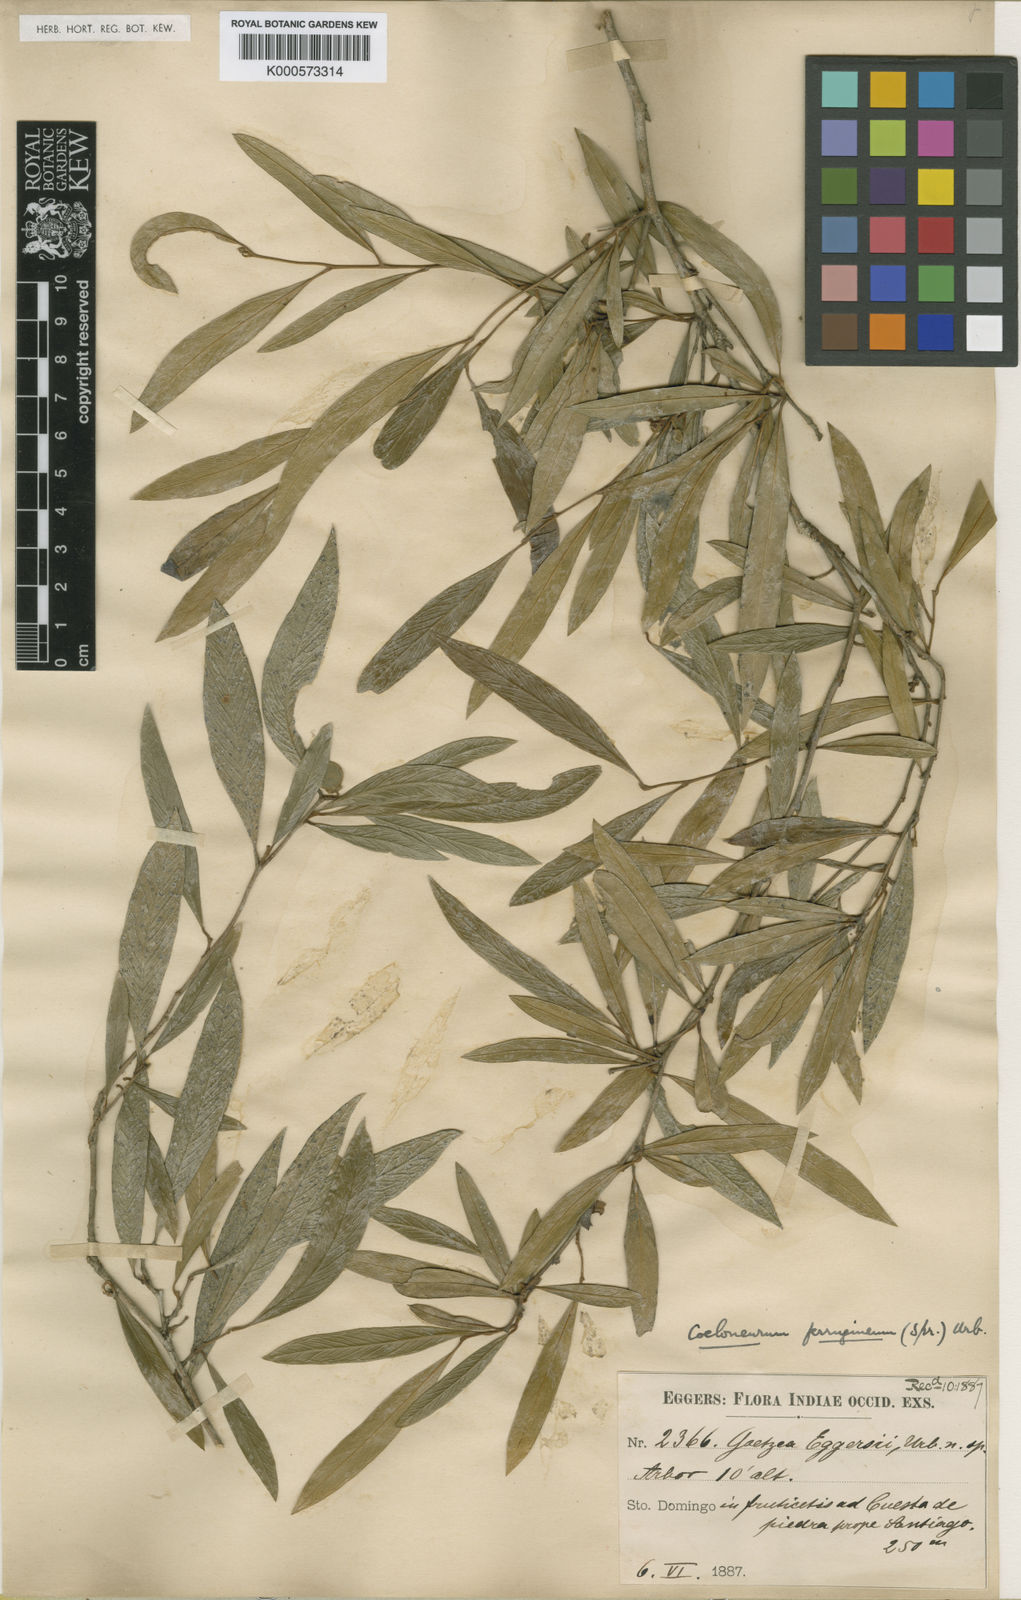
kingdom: Plantae
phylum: Tracheophyta
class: Magnoliopsida
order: Solanales
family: Solanaceae
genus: Coeloneurum
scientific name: Coeloneurum ferrugineum
